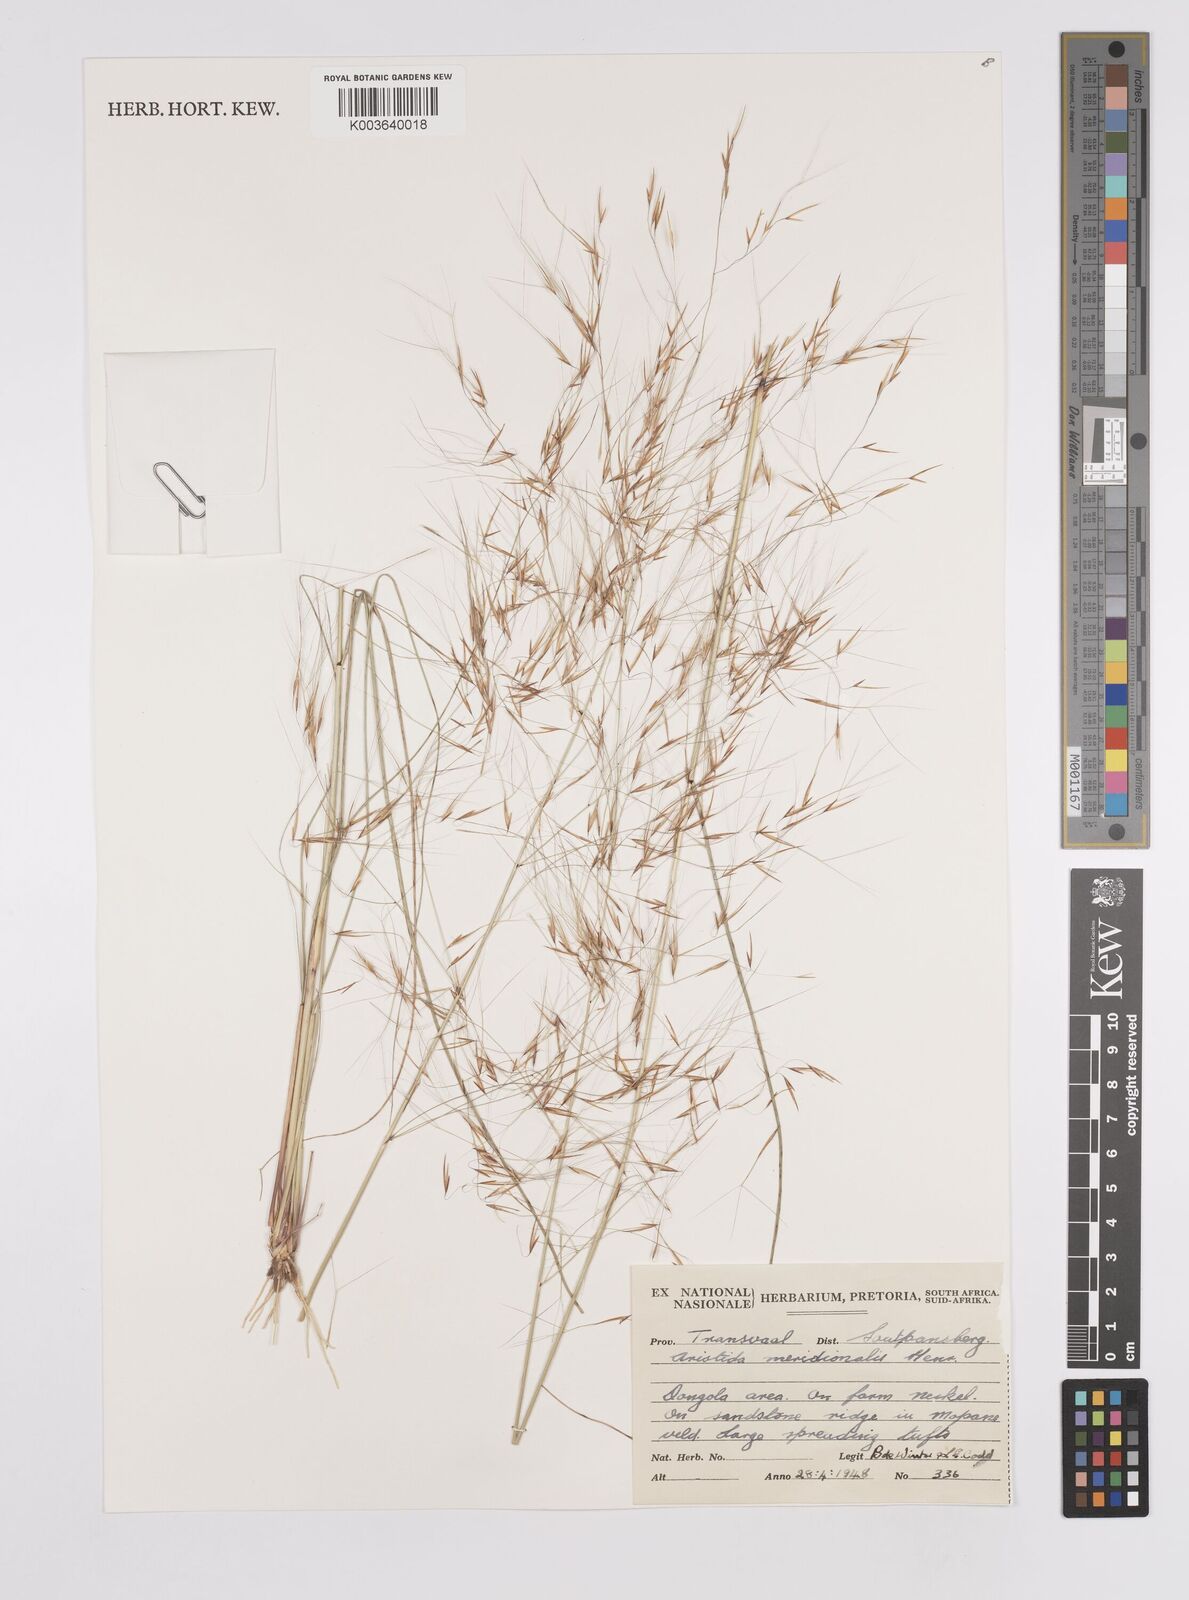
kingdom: Plantae
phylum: Tracheophyta
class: Liliopsida
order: Poales
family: Poaceae
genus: Aristida
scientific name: Aristida meridionalis
